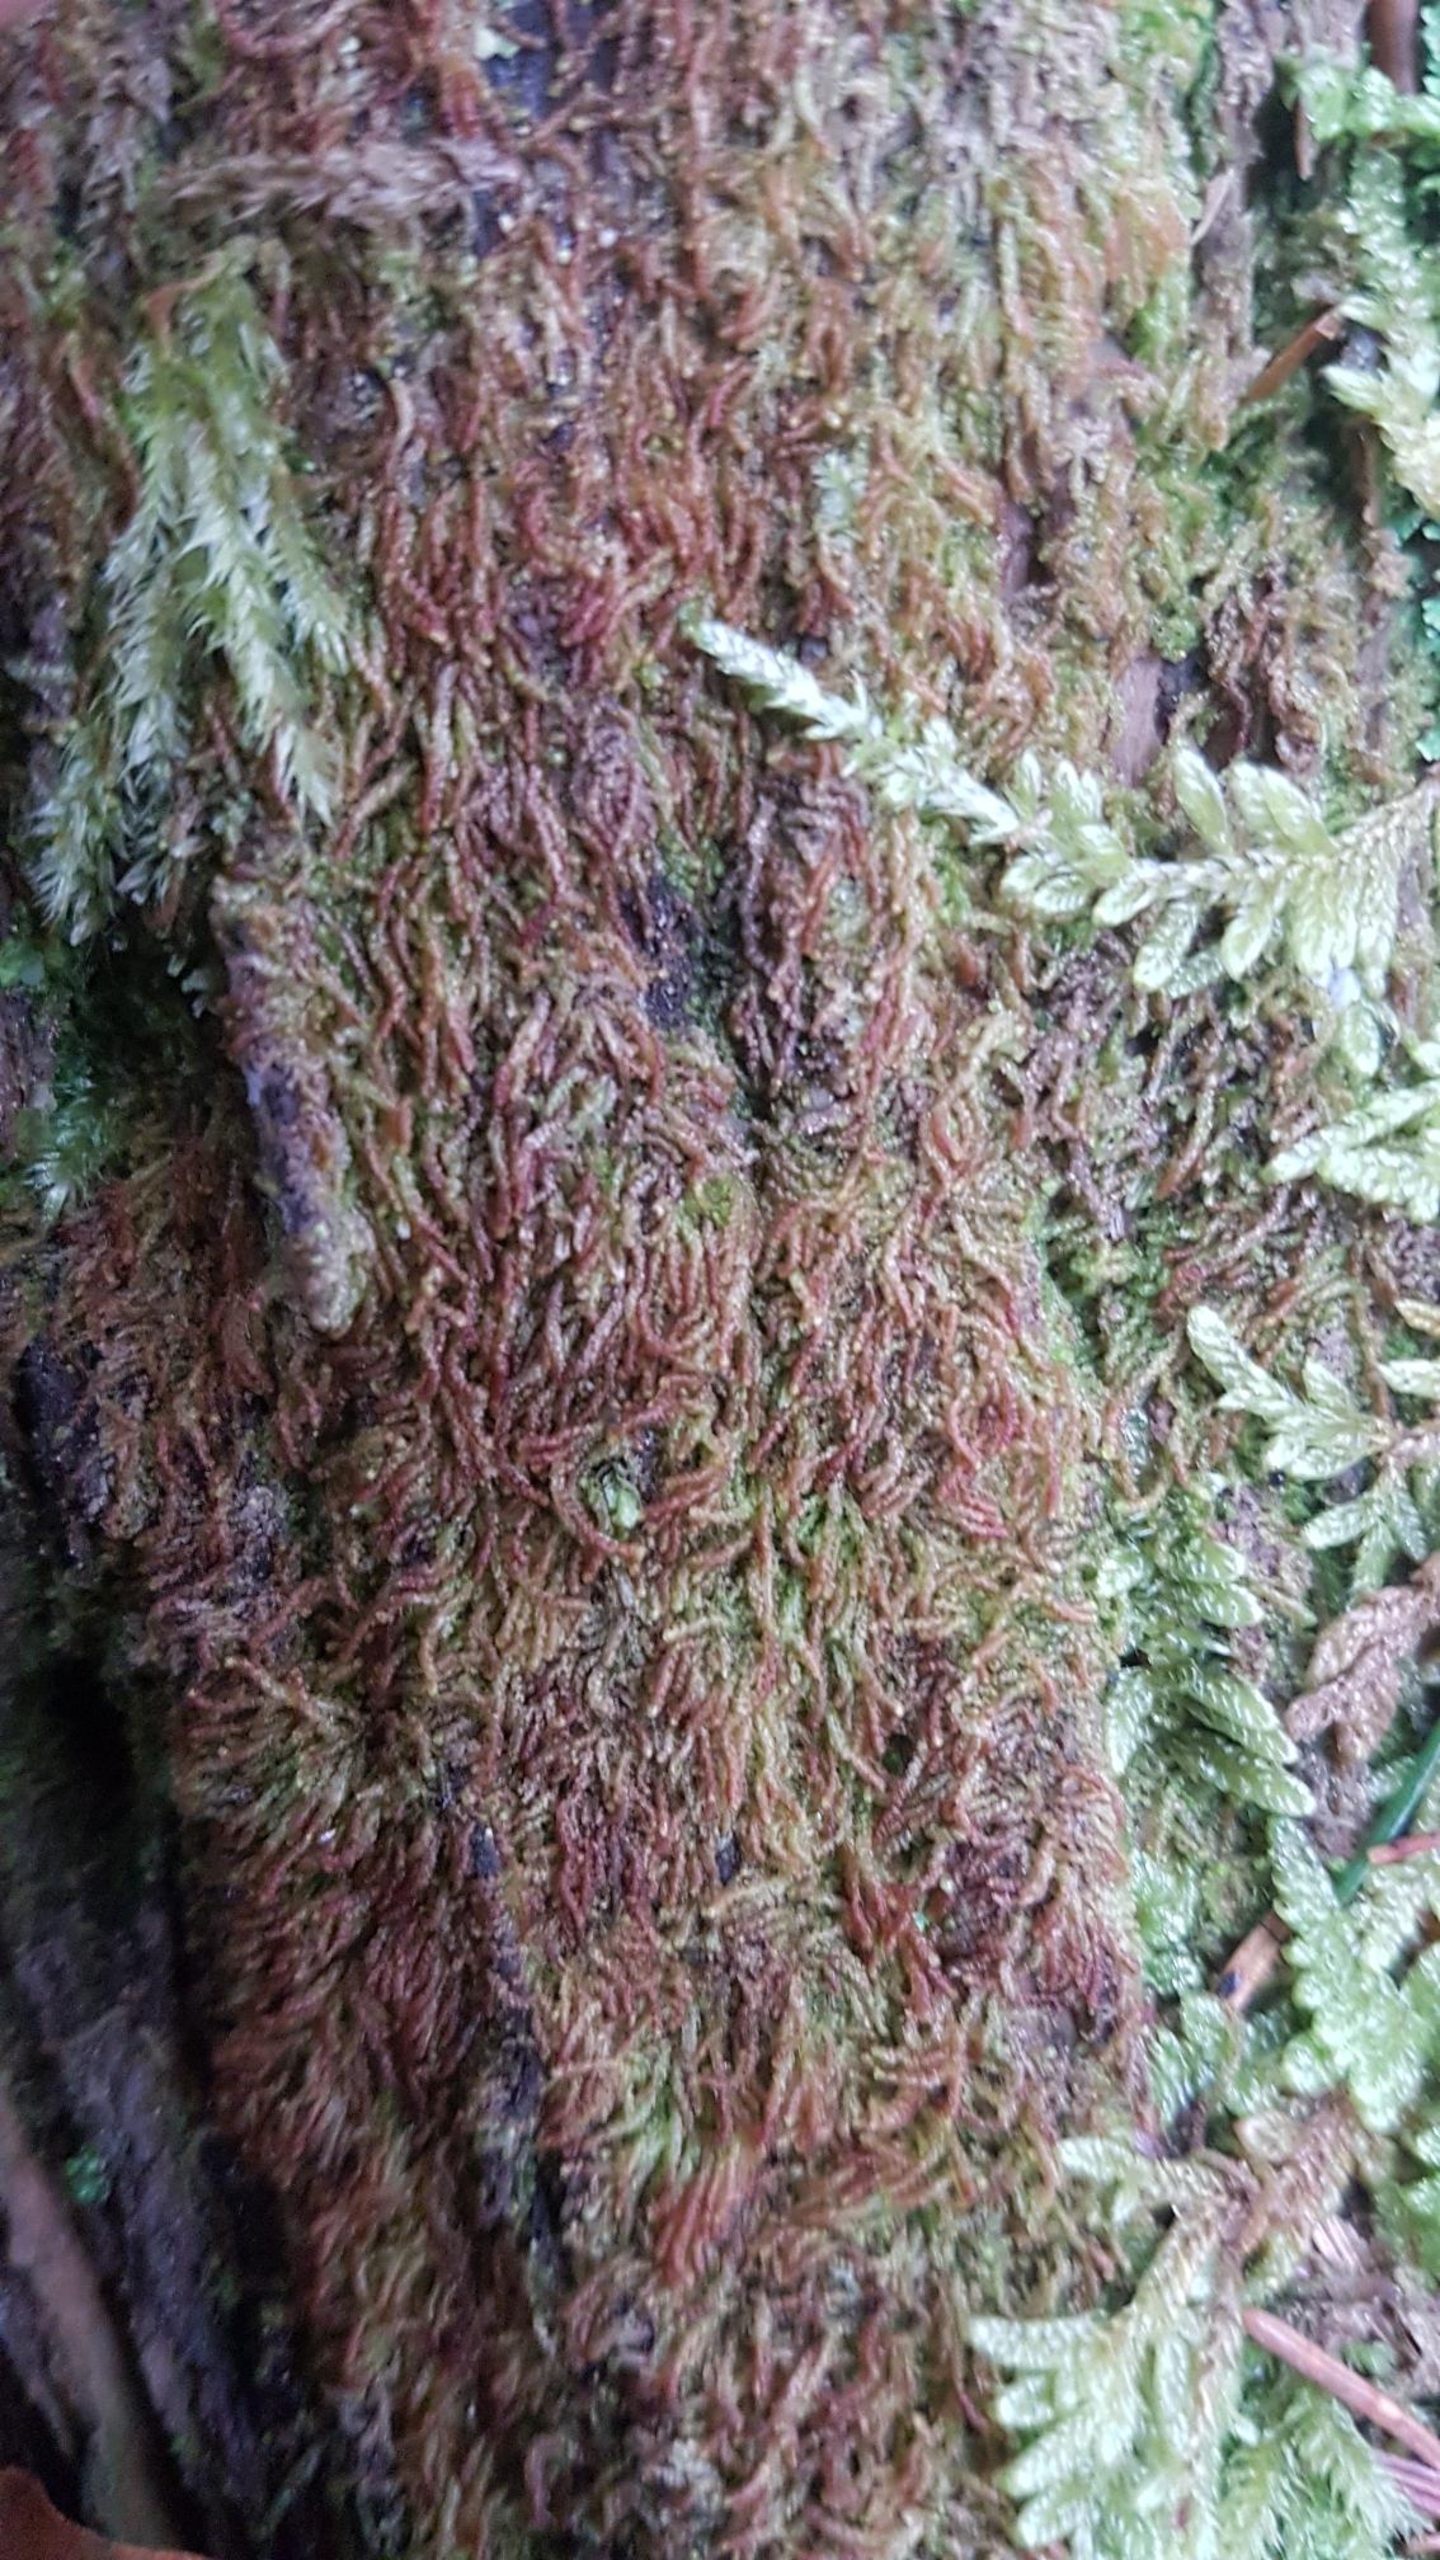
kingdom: Plantae
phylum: Marchantiophyta
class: Jungermanniopsida
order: Jungermanniales
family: Cephaloziaceae
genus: Nowellia
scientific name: Nowellia curvifolia
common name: Krumbladet stødmos
